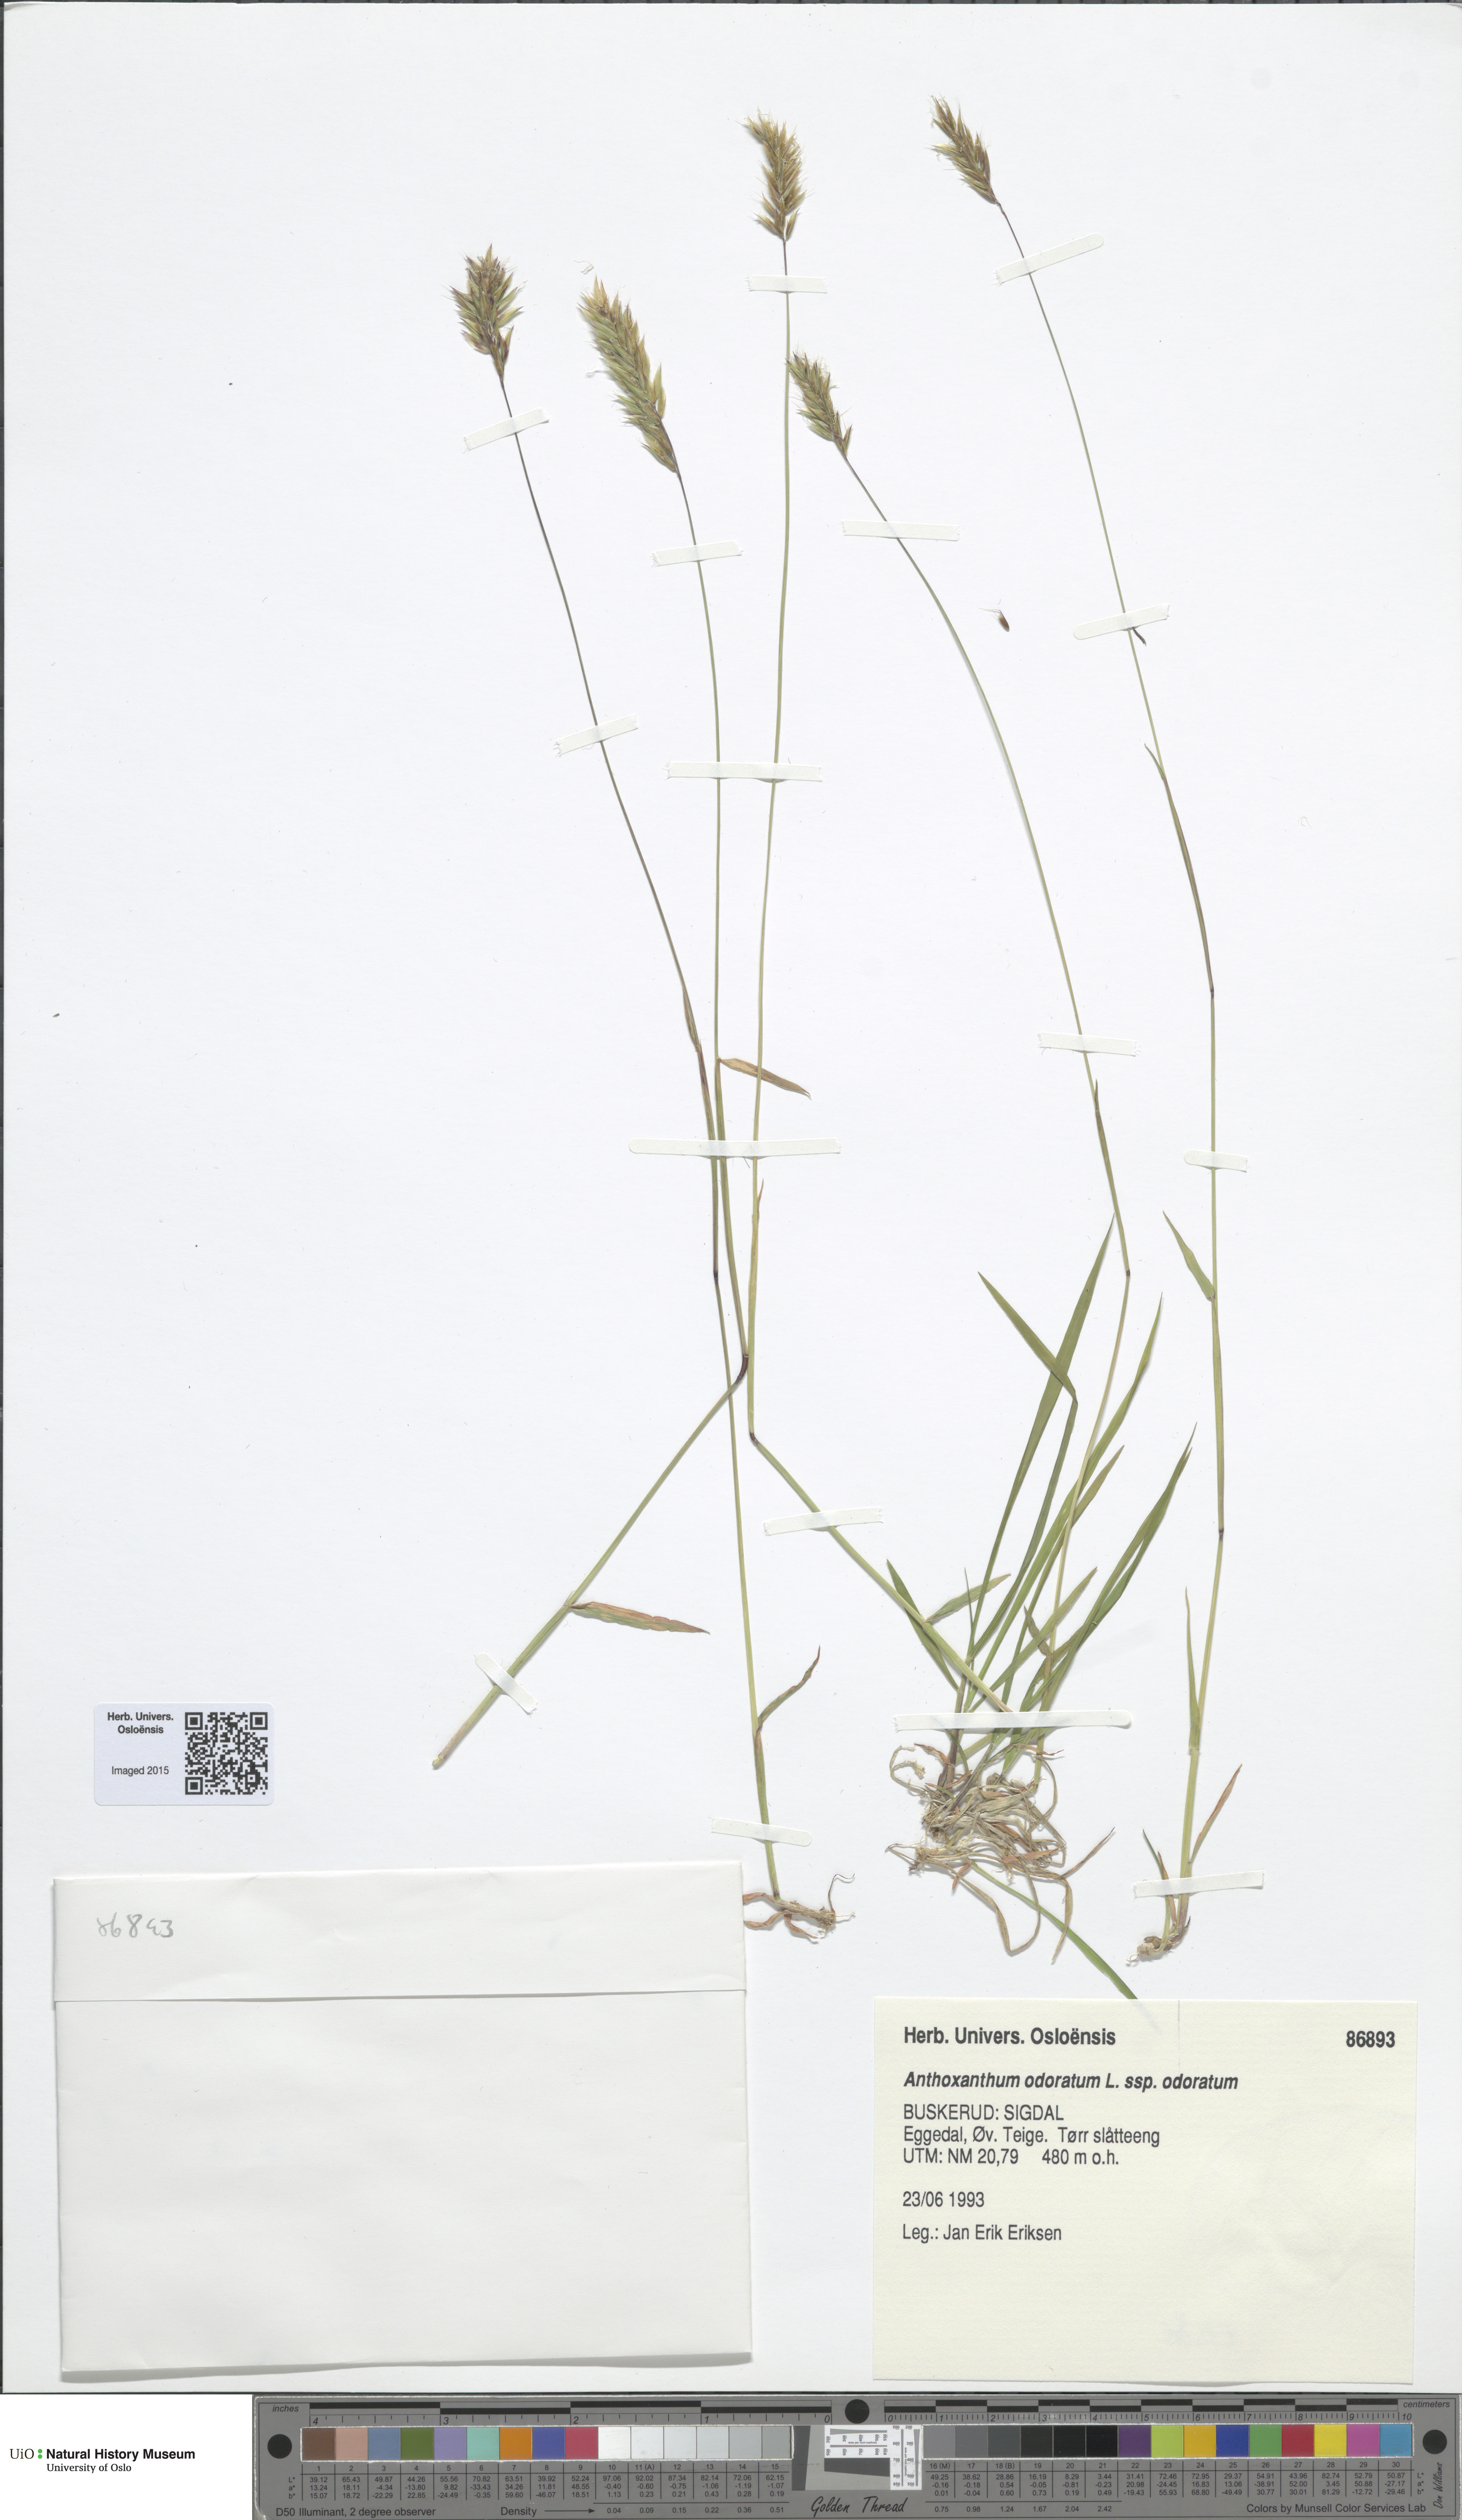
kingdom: Plantae
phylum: Tracheophyta
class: Liliopsida
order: Poales
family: Poaceae
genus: Anthoxanthum
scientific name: Anthoxanthum odoratum
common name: Sweet vernalgrass
